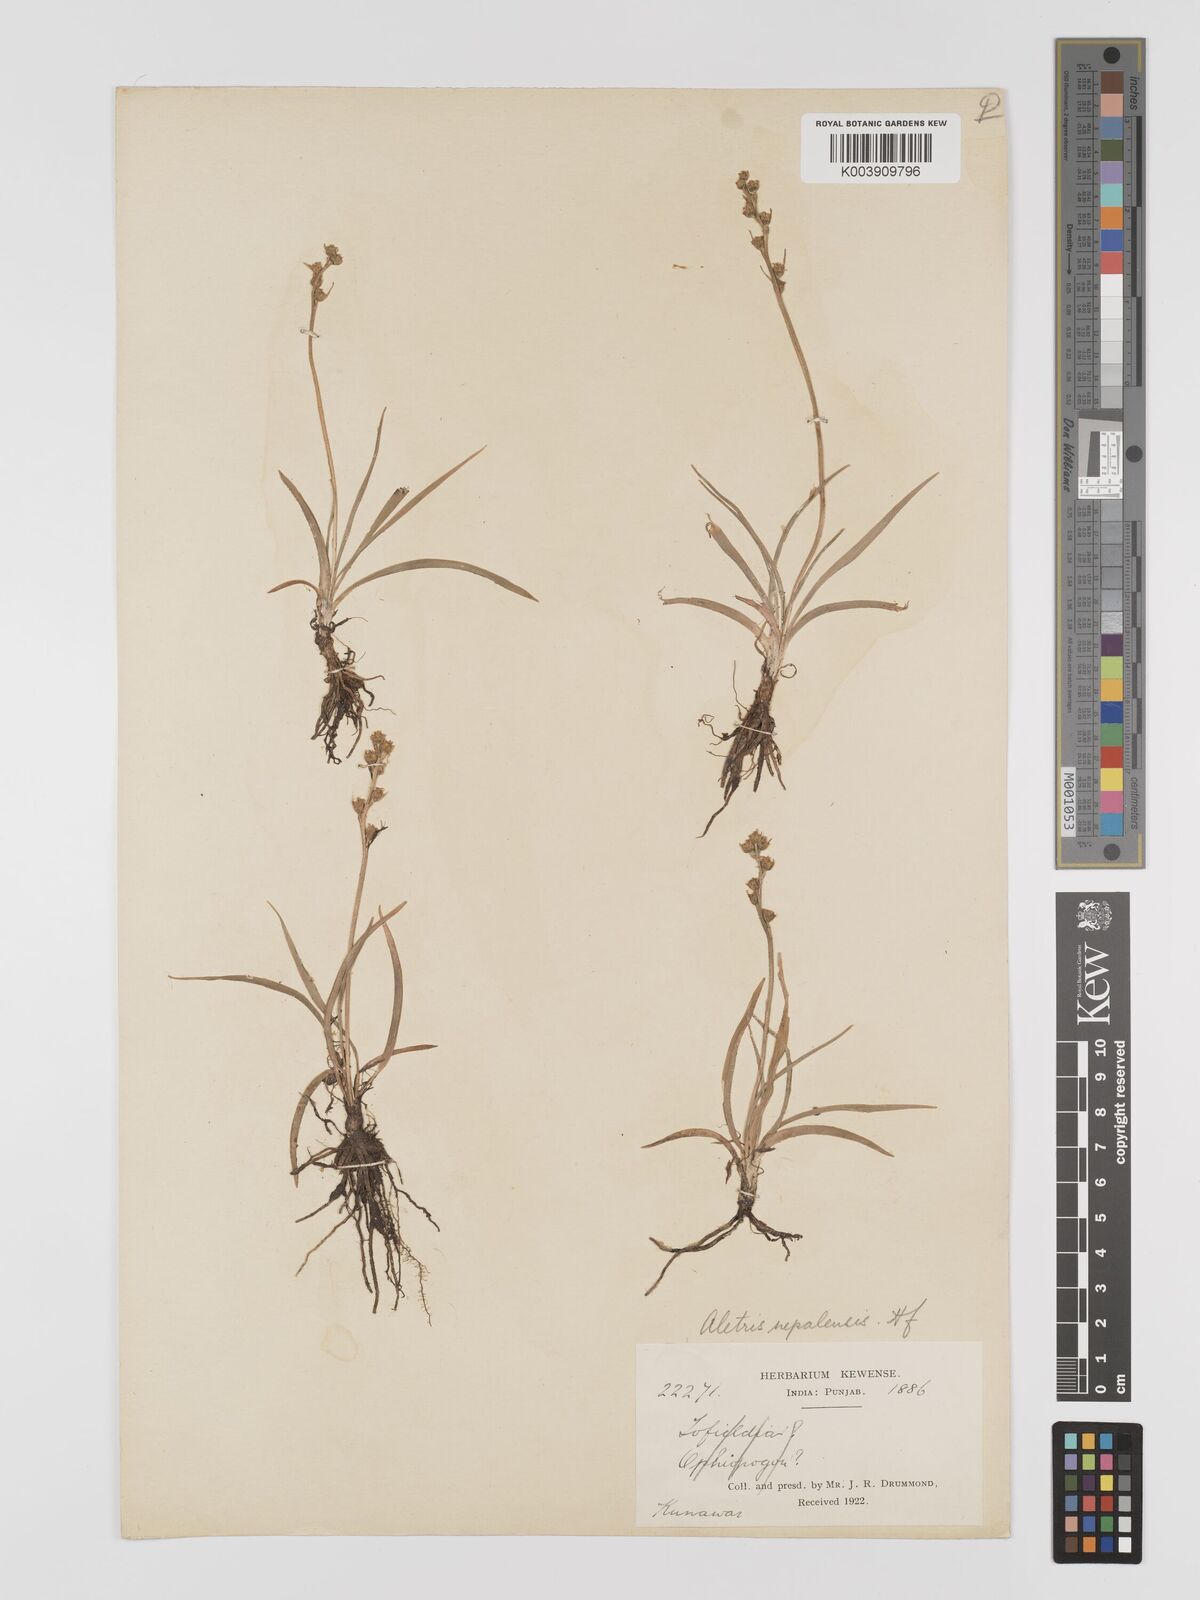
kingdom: Plantae
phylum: Tracheophyta
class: Liliopsida
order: Dioscoreales
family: Nartheciaceae
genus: Aletris
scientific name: Aletris pauciflora
